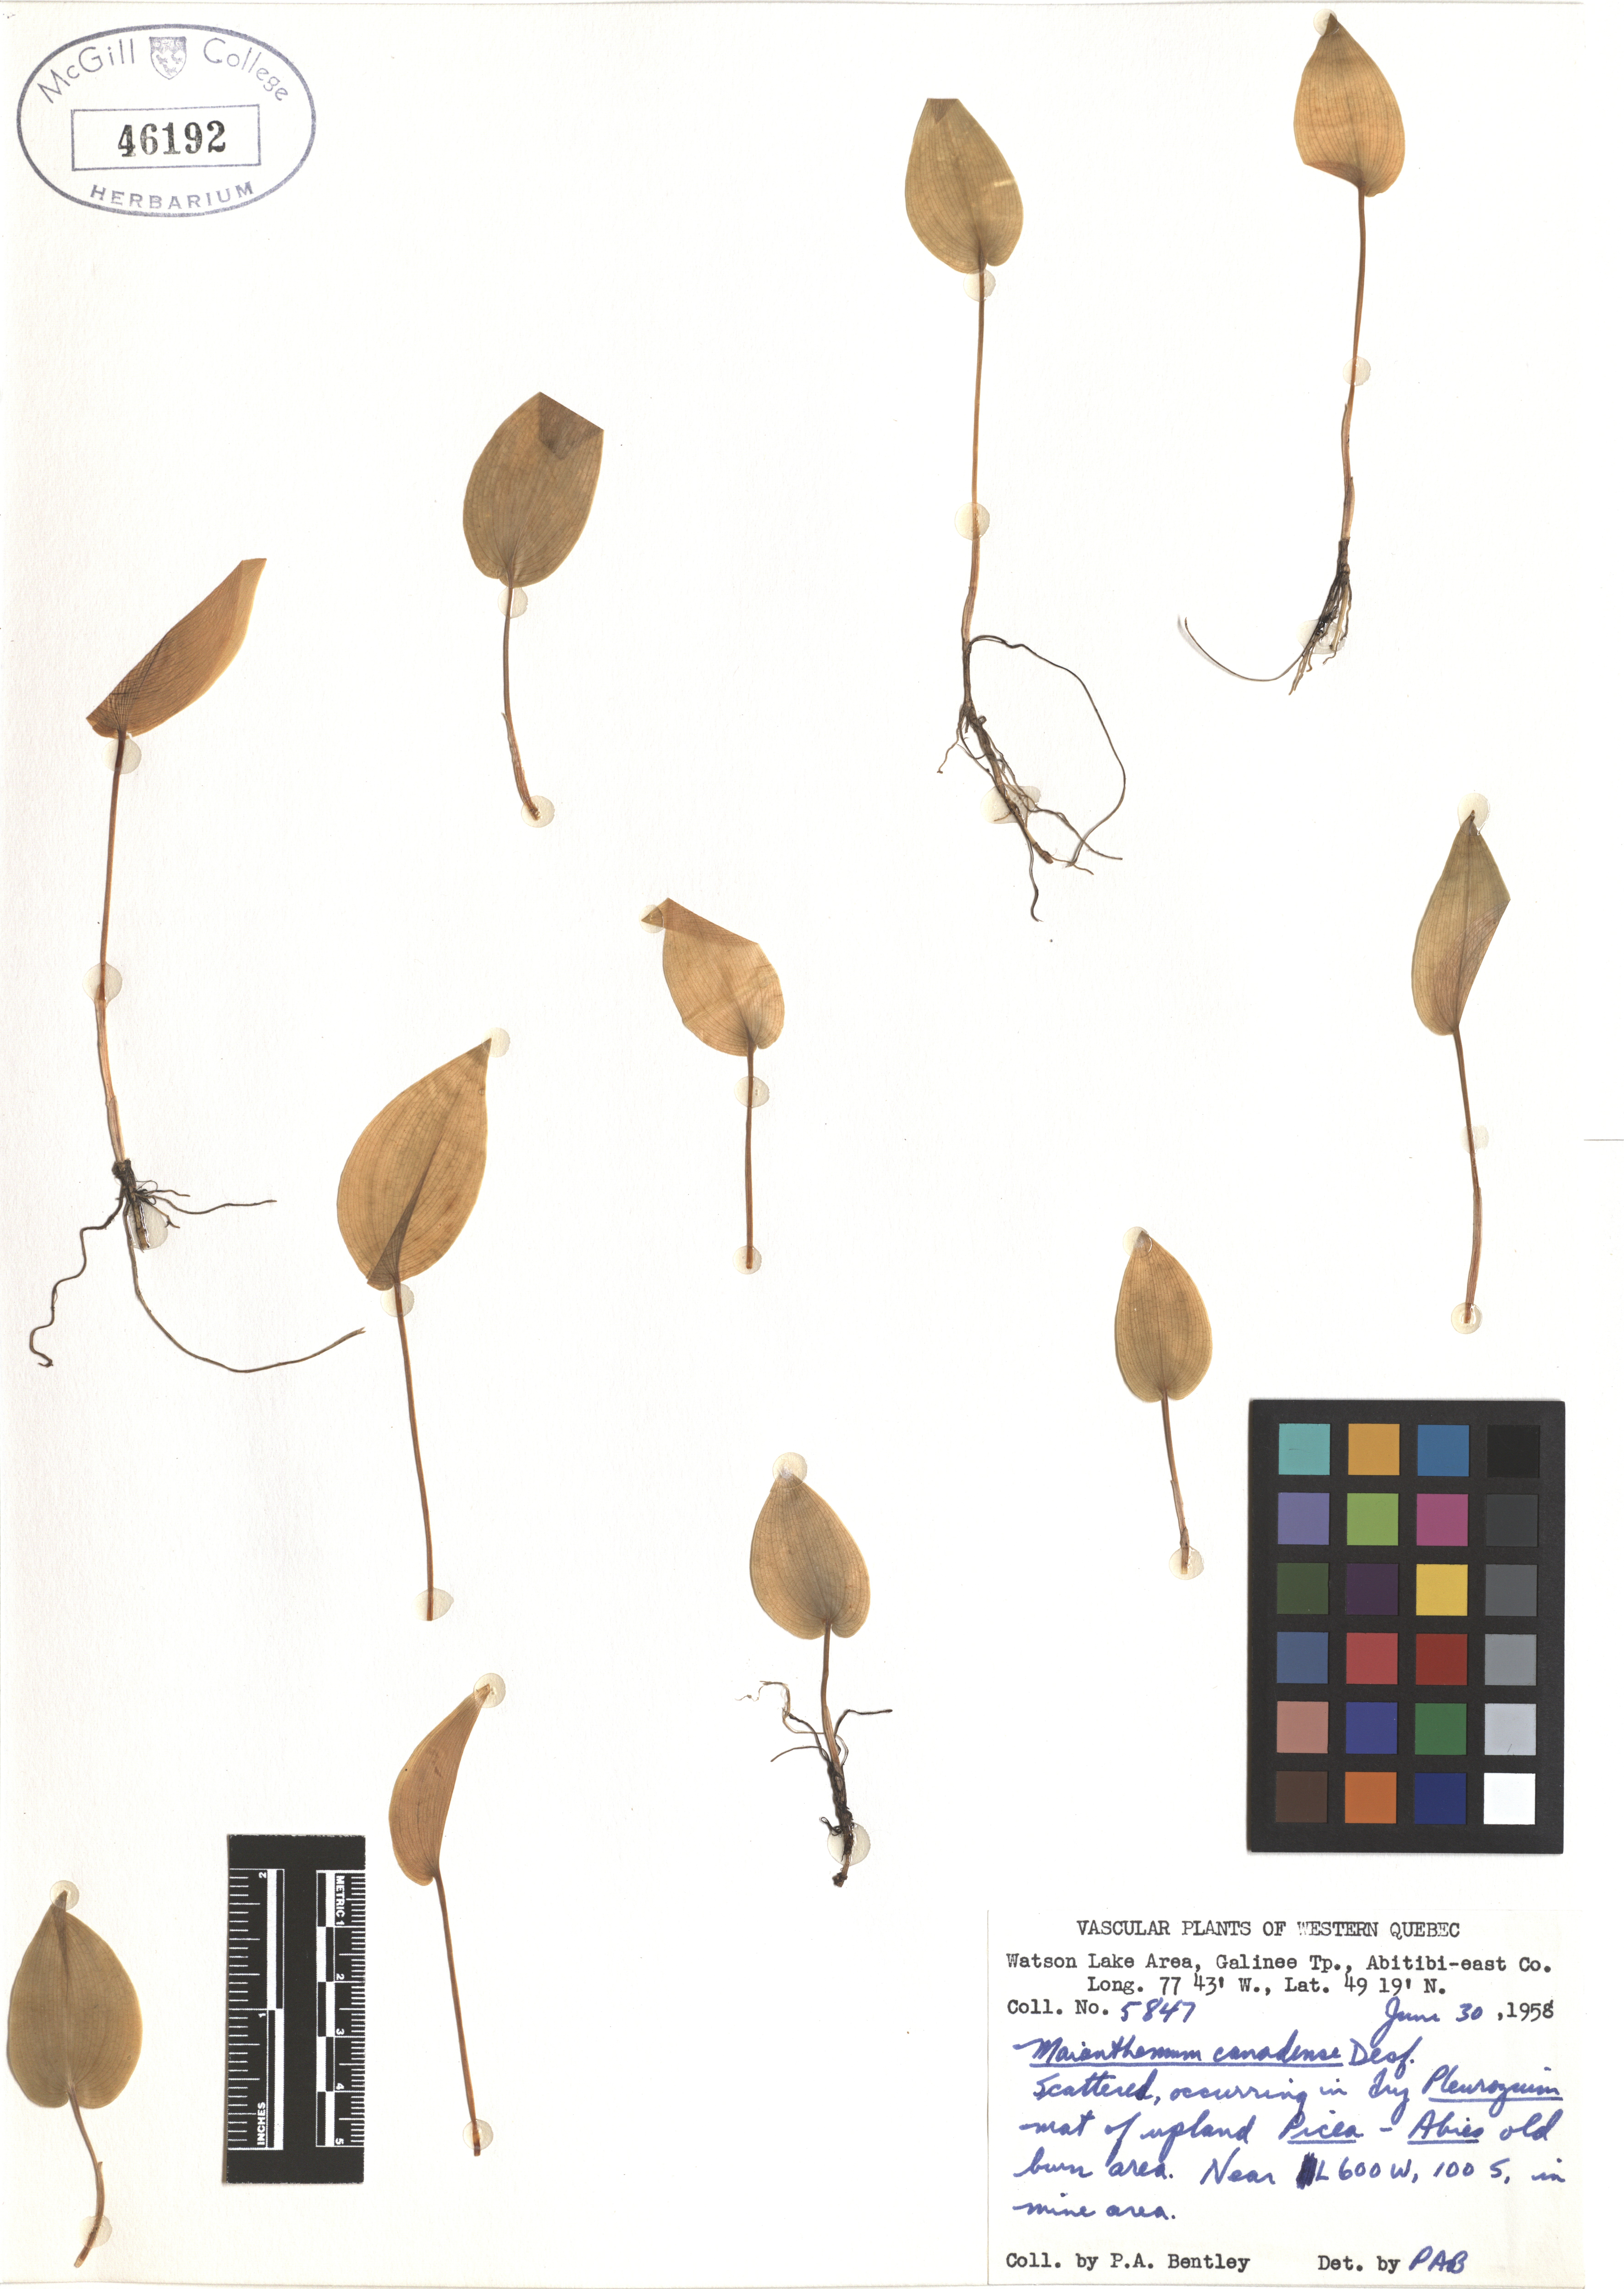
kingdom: Plantae
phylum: Tracheophyta
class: Liliopsida
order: Asparagales
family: Asparagaceae
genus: Maianthemum
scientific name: Maianthemum canadense
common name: False lily-of-the-valley
